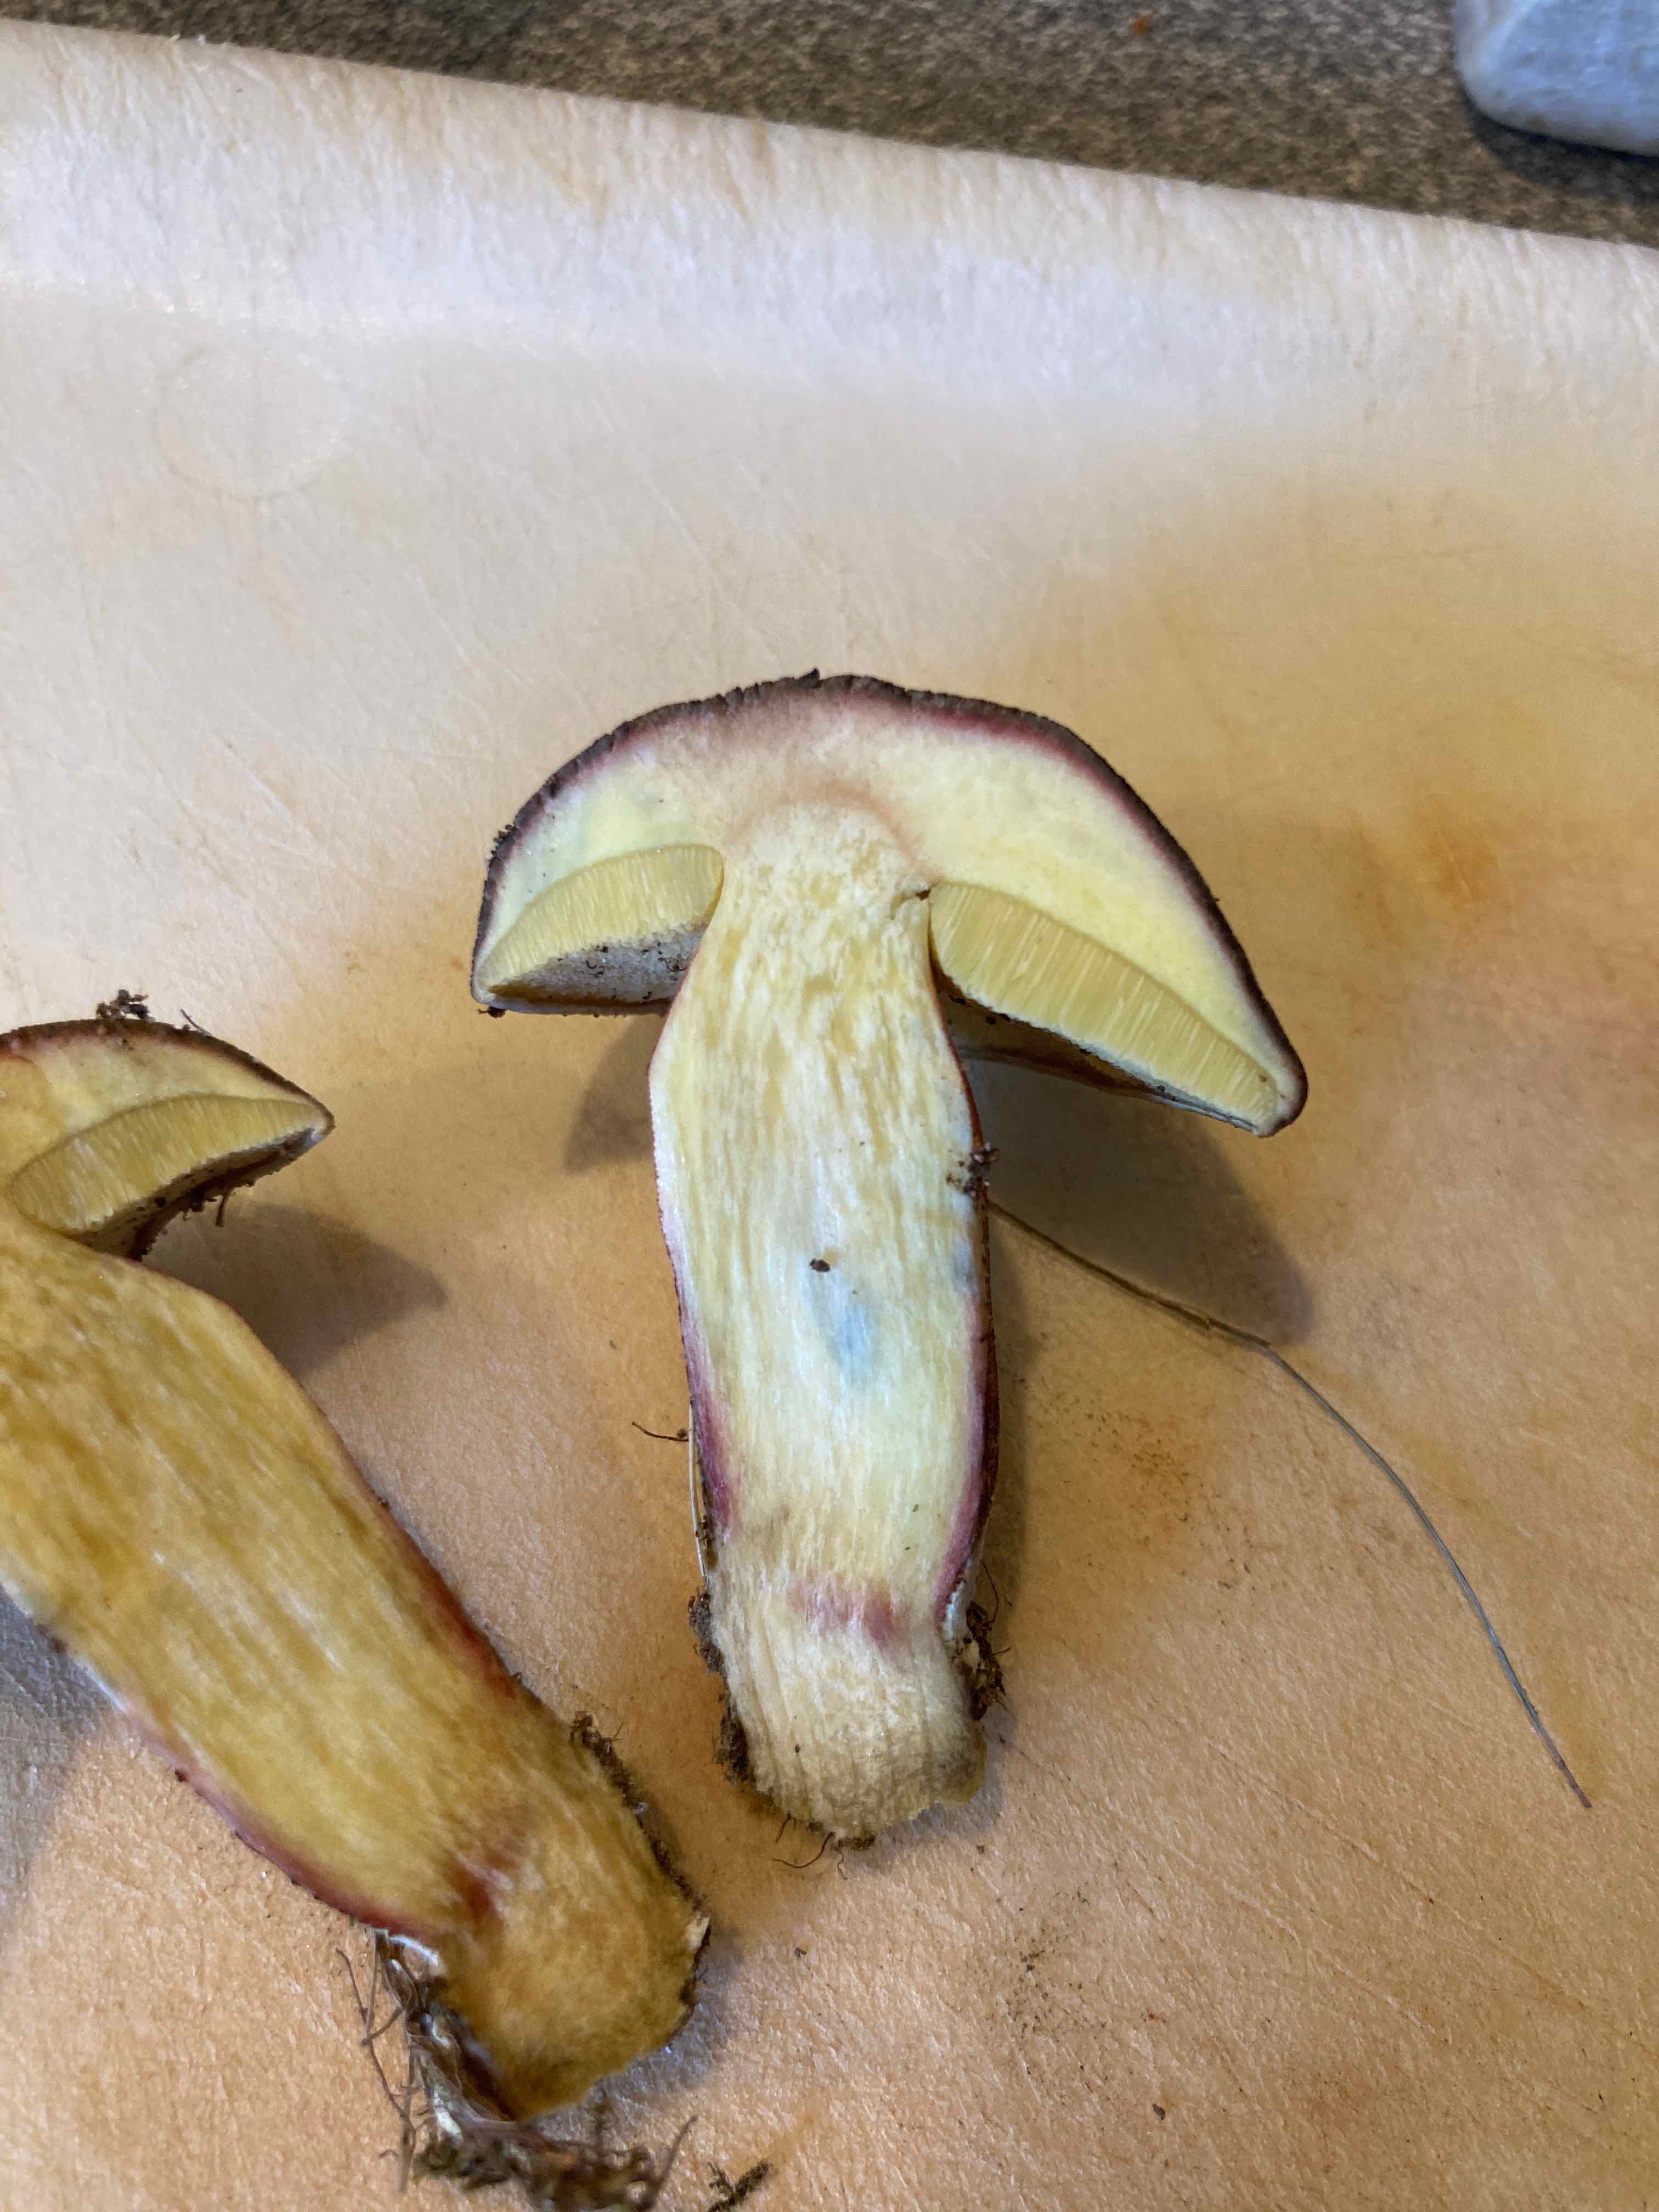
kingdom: Fungi
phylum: Basidiomycota
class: Agaricomycetes
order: Boletales
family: Boletaceae
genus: Xerocomellus
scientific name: Xerocomellus
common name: dværgrørhat
